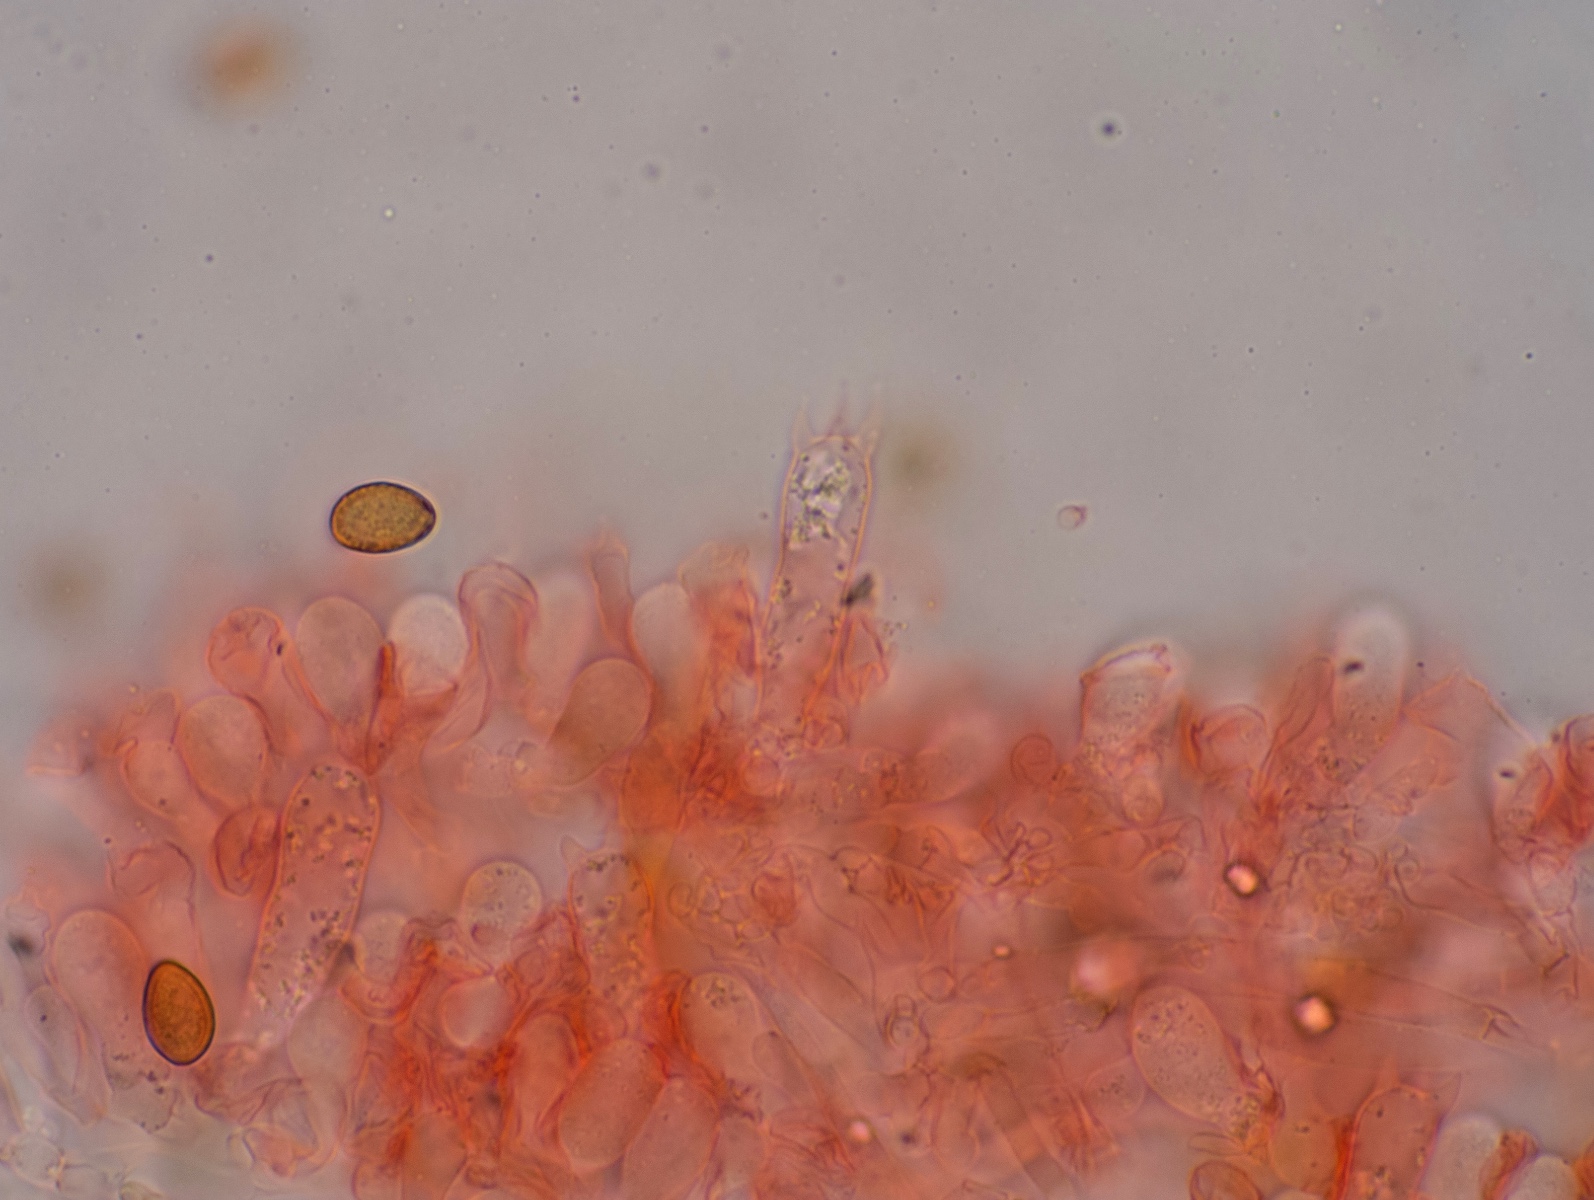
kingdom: Fungi
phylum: Basidiomycota
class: Agaricomycetes
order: Agaricales
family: Hymenogastraceae
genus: Galerina
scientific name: Galerina esteve-raventosii
